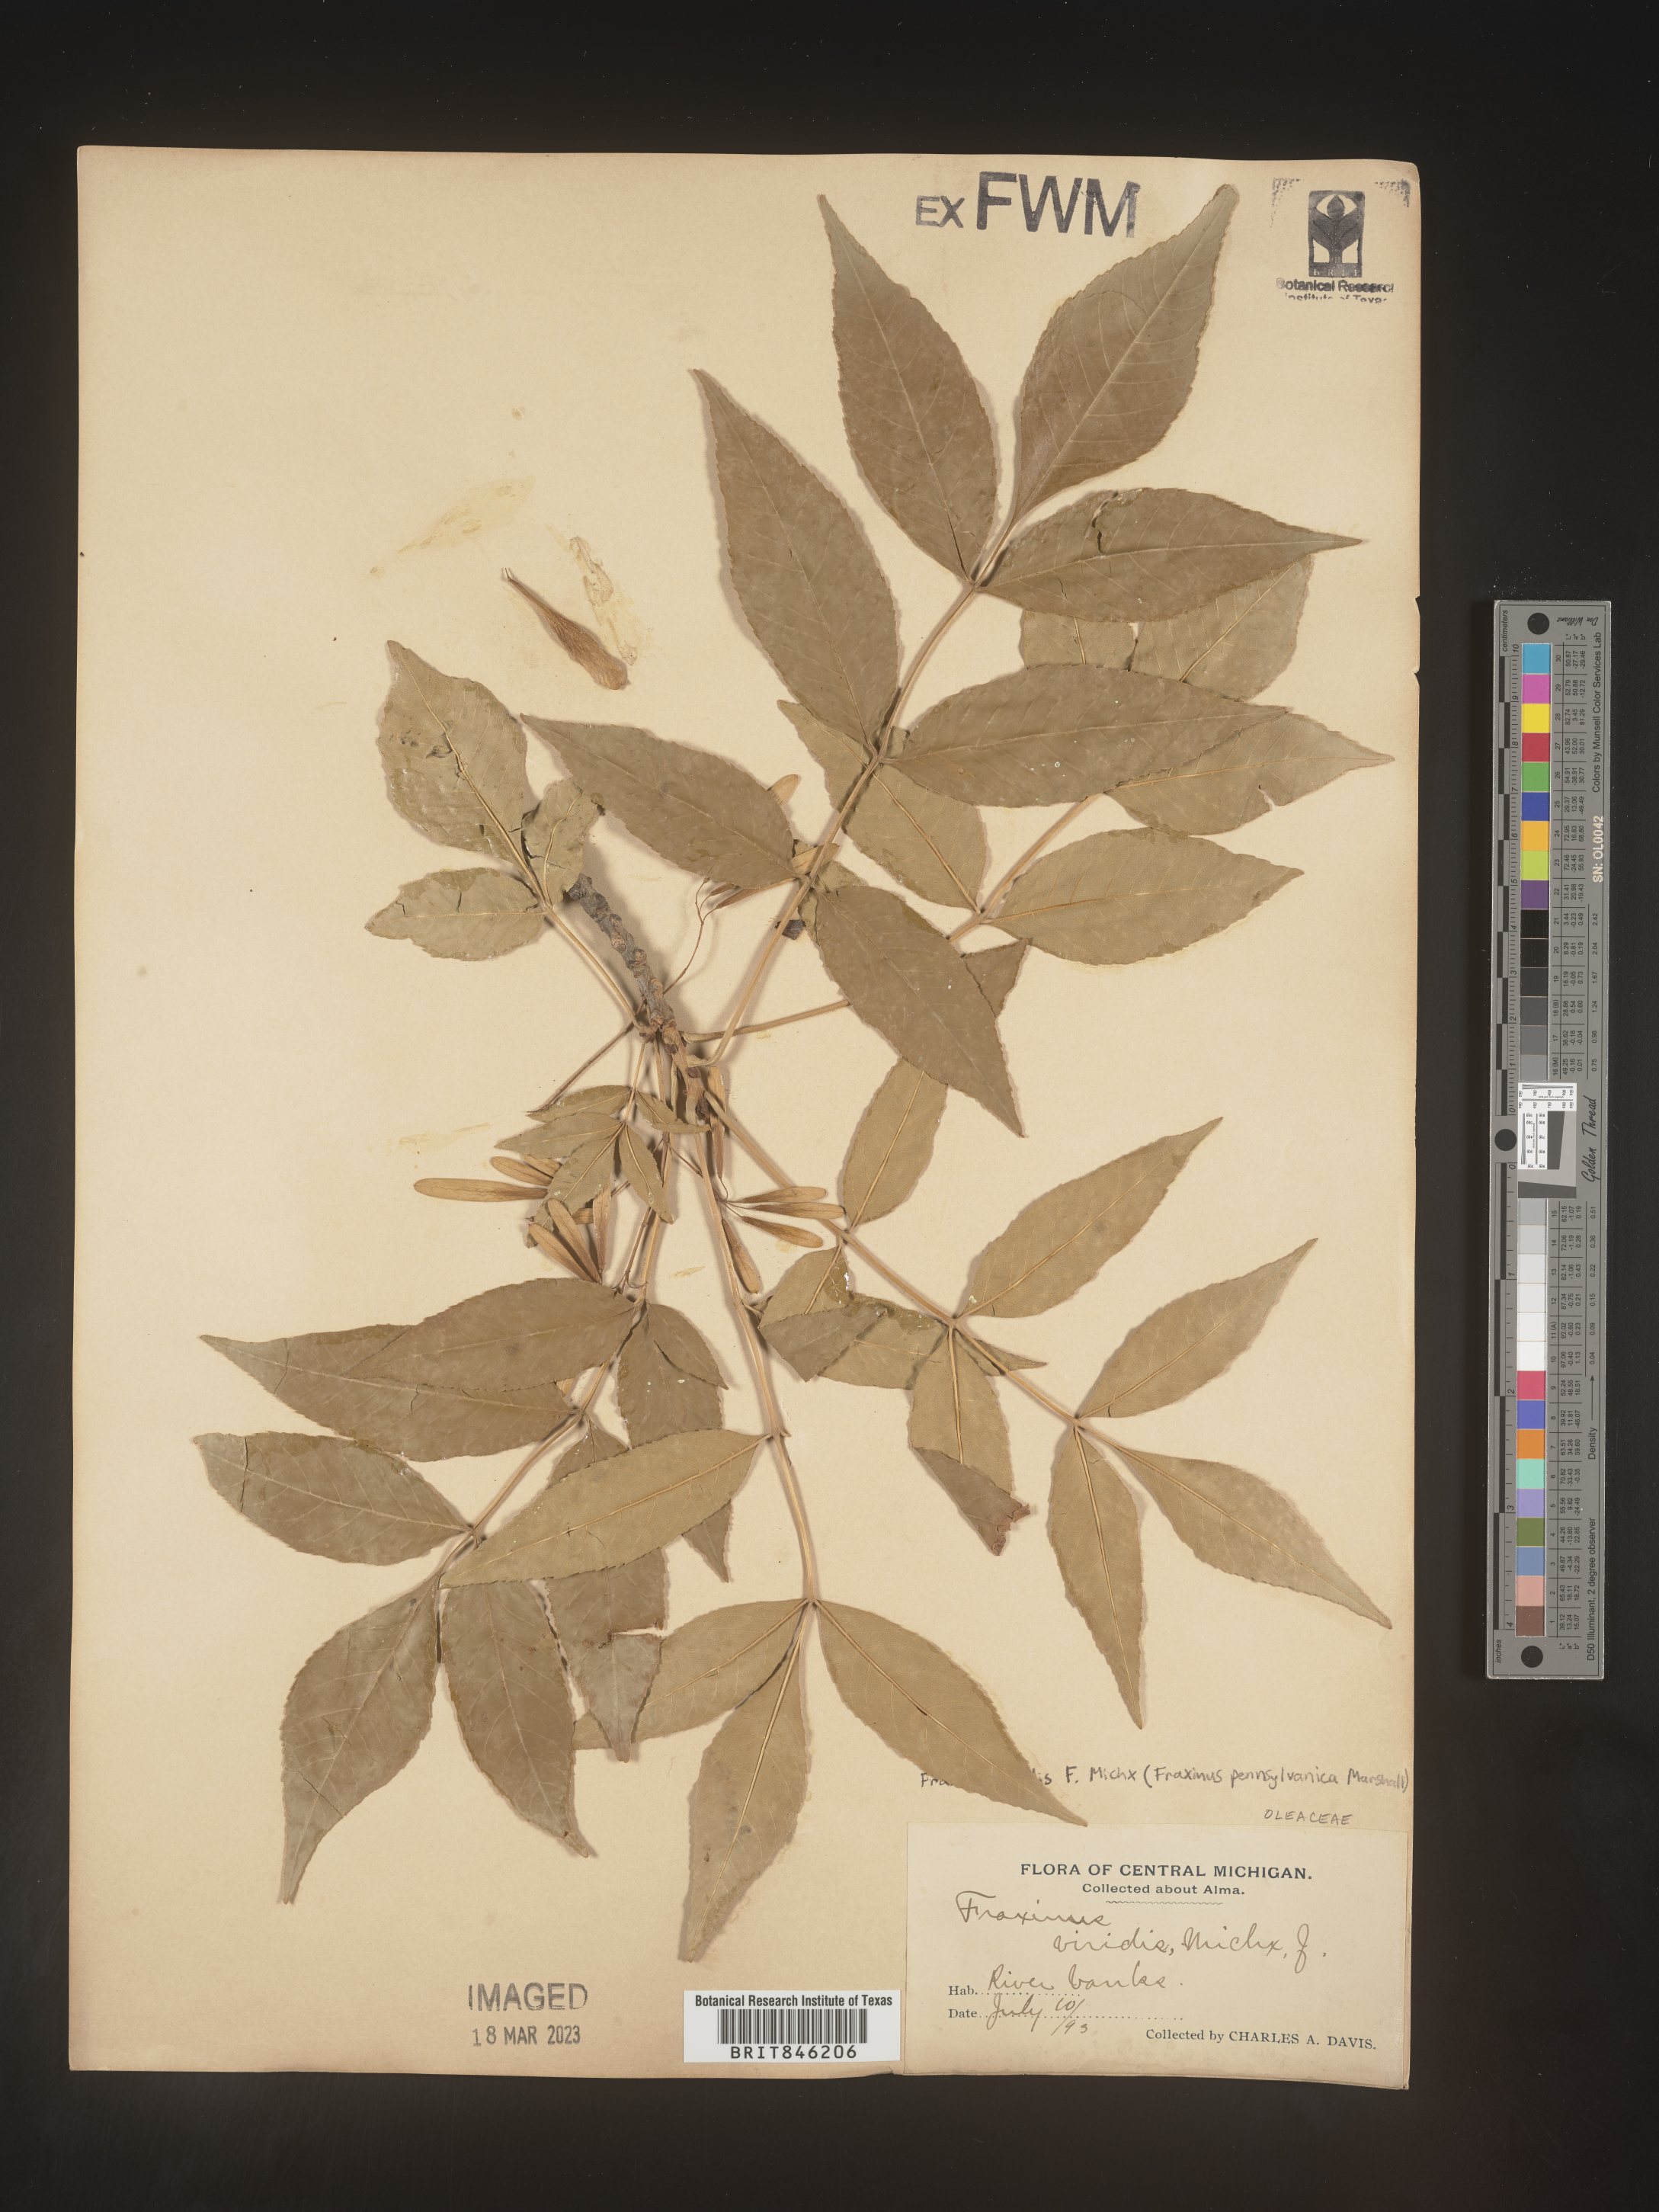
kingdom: Plantae
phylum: Tracheophyta
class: Magnoliopsida
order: Lamiales
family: Oleaceae
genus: Fraxinus
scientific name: Fraxinus pennsylvanica
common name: Green ash
